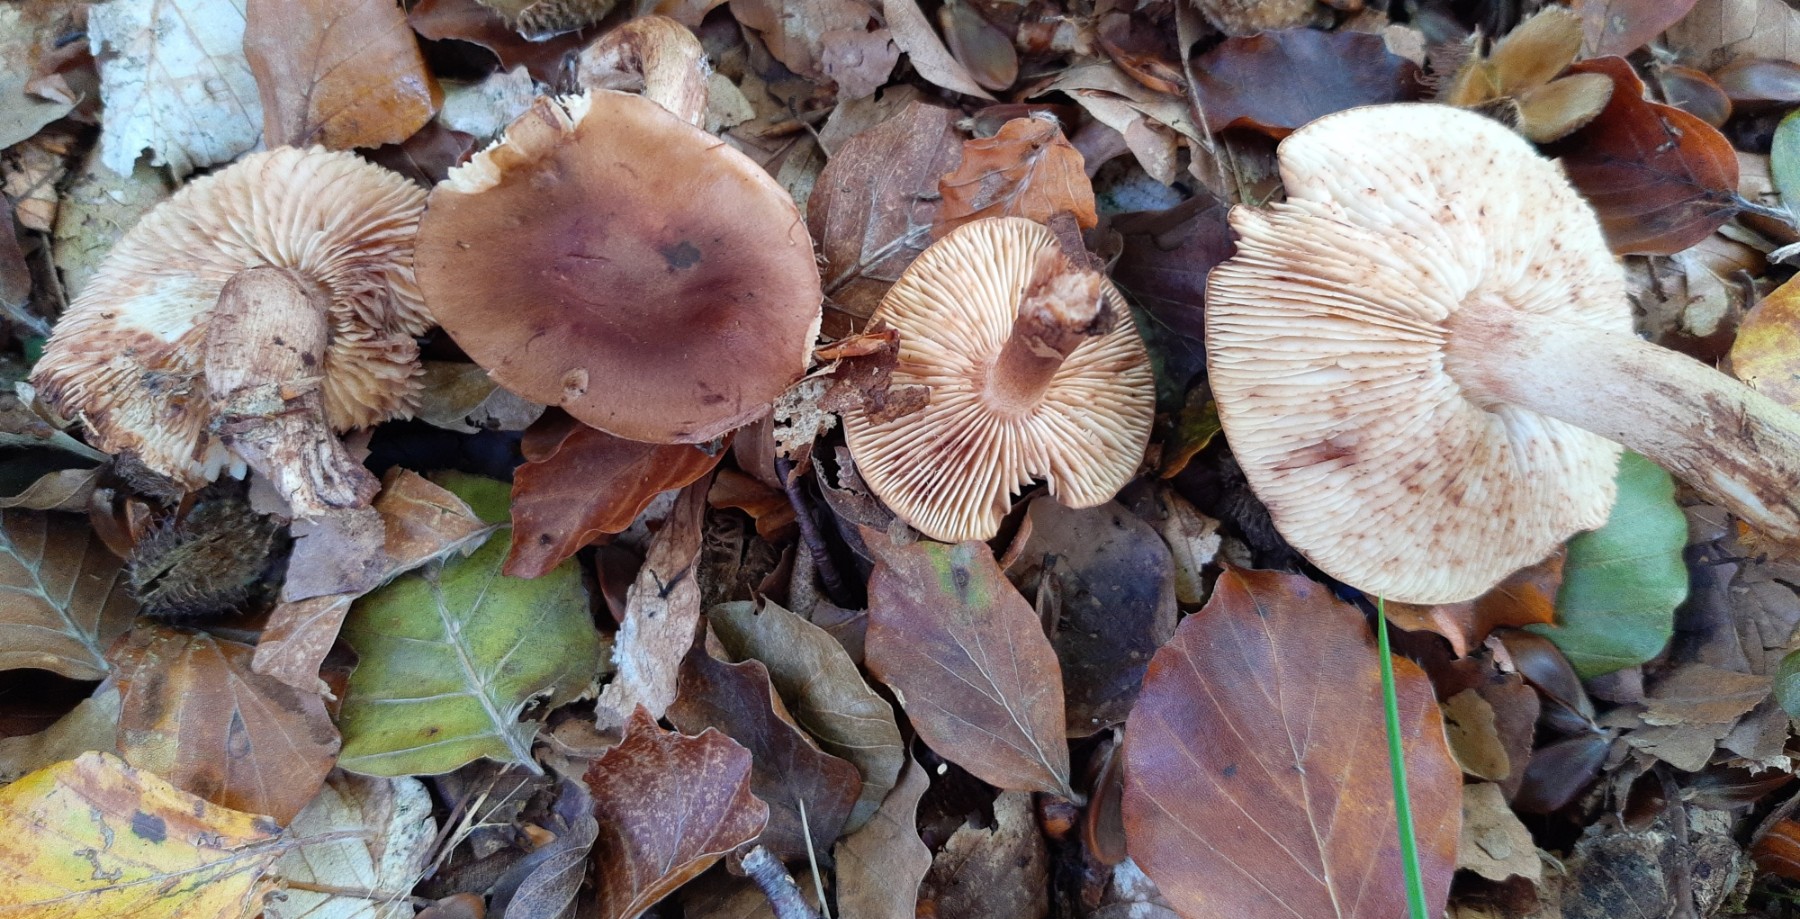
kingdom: Fungi
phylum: Basidiomycota
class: Agaricomycetes
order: Agaricales
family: Tricholomataceae
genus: Tricholoma
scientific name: Tricholoma ustale
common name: sveden ridderhat
